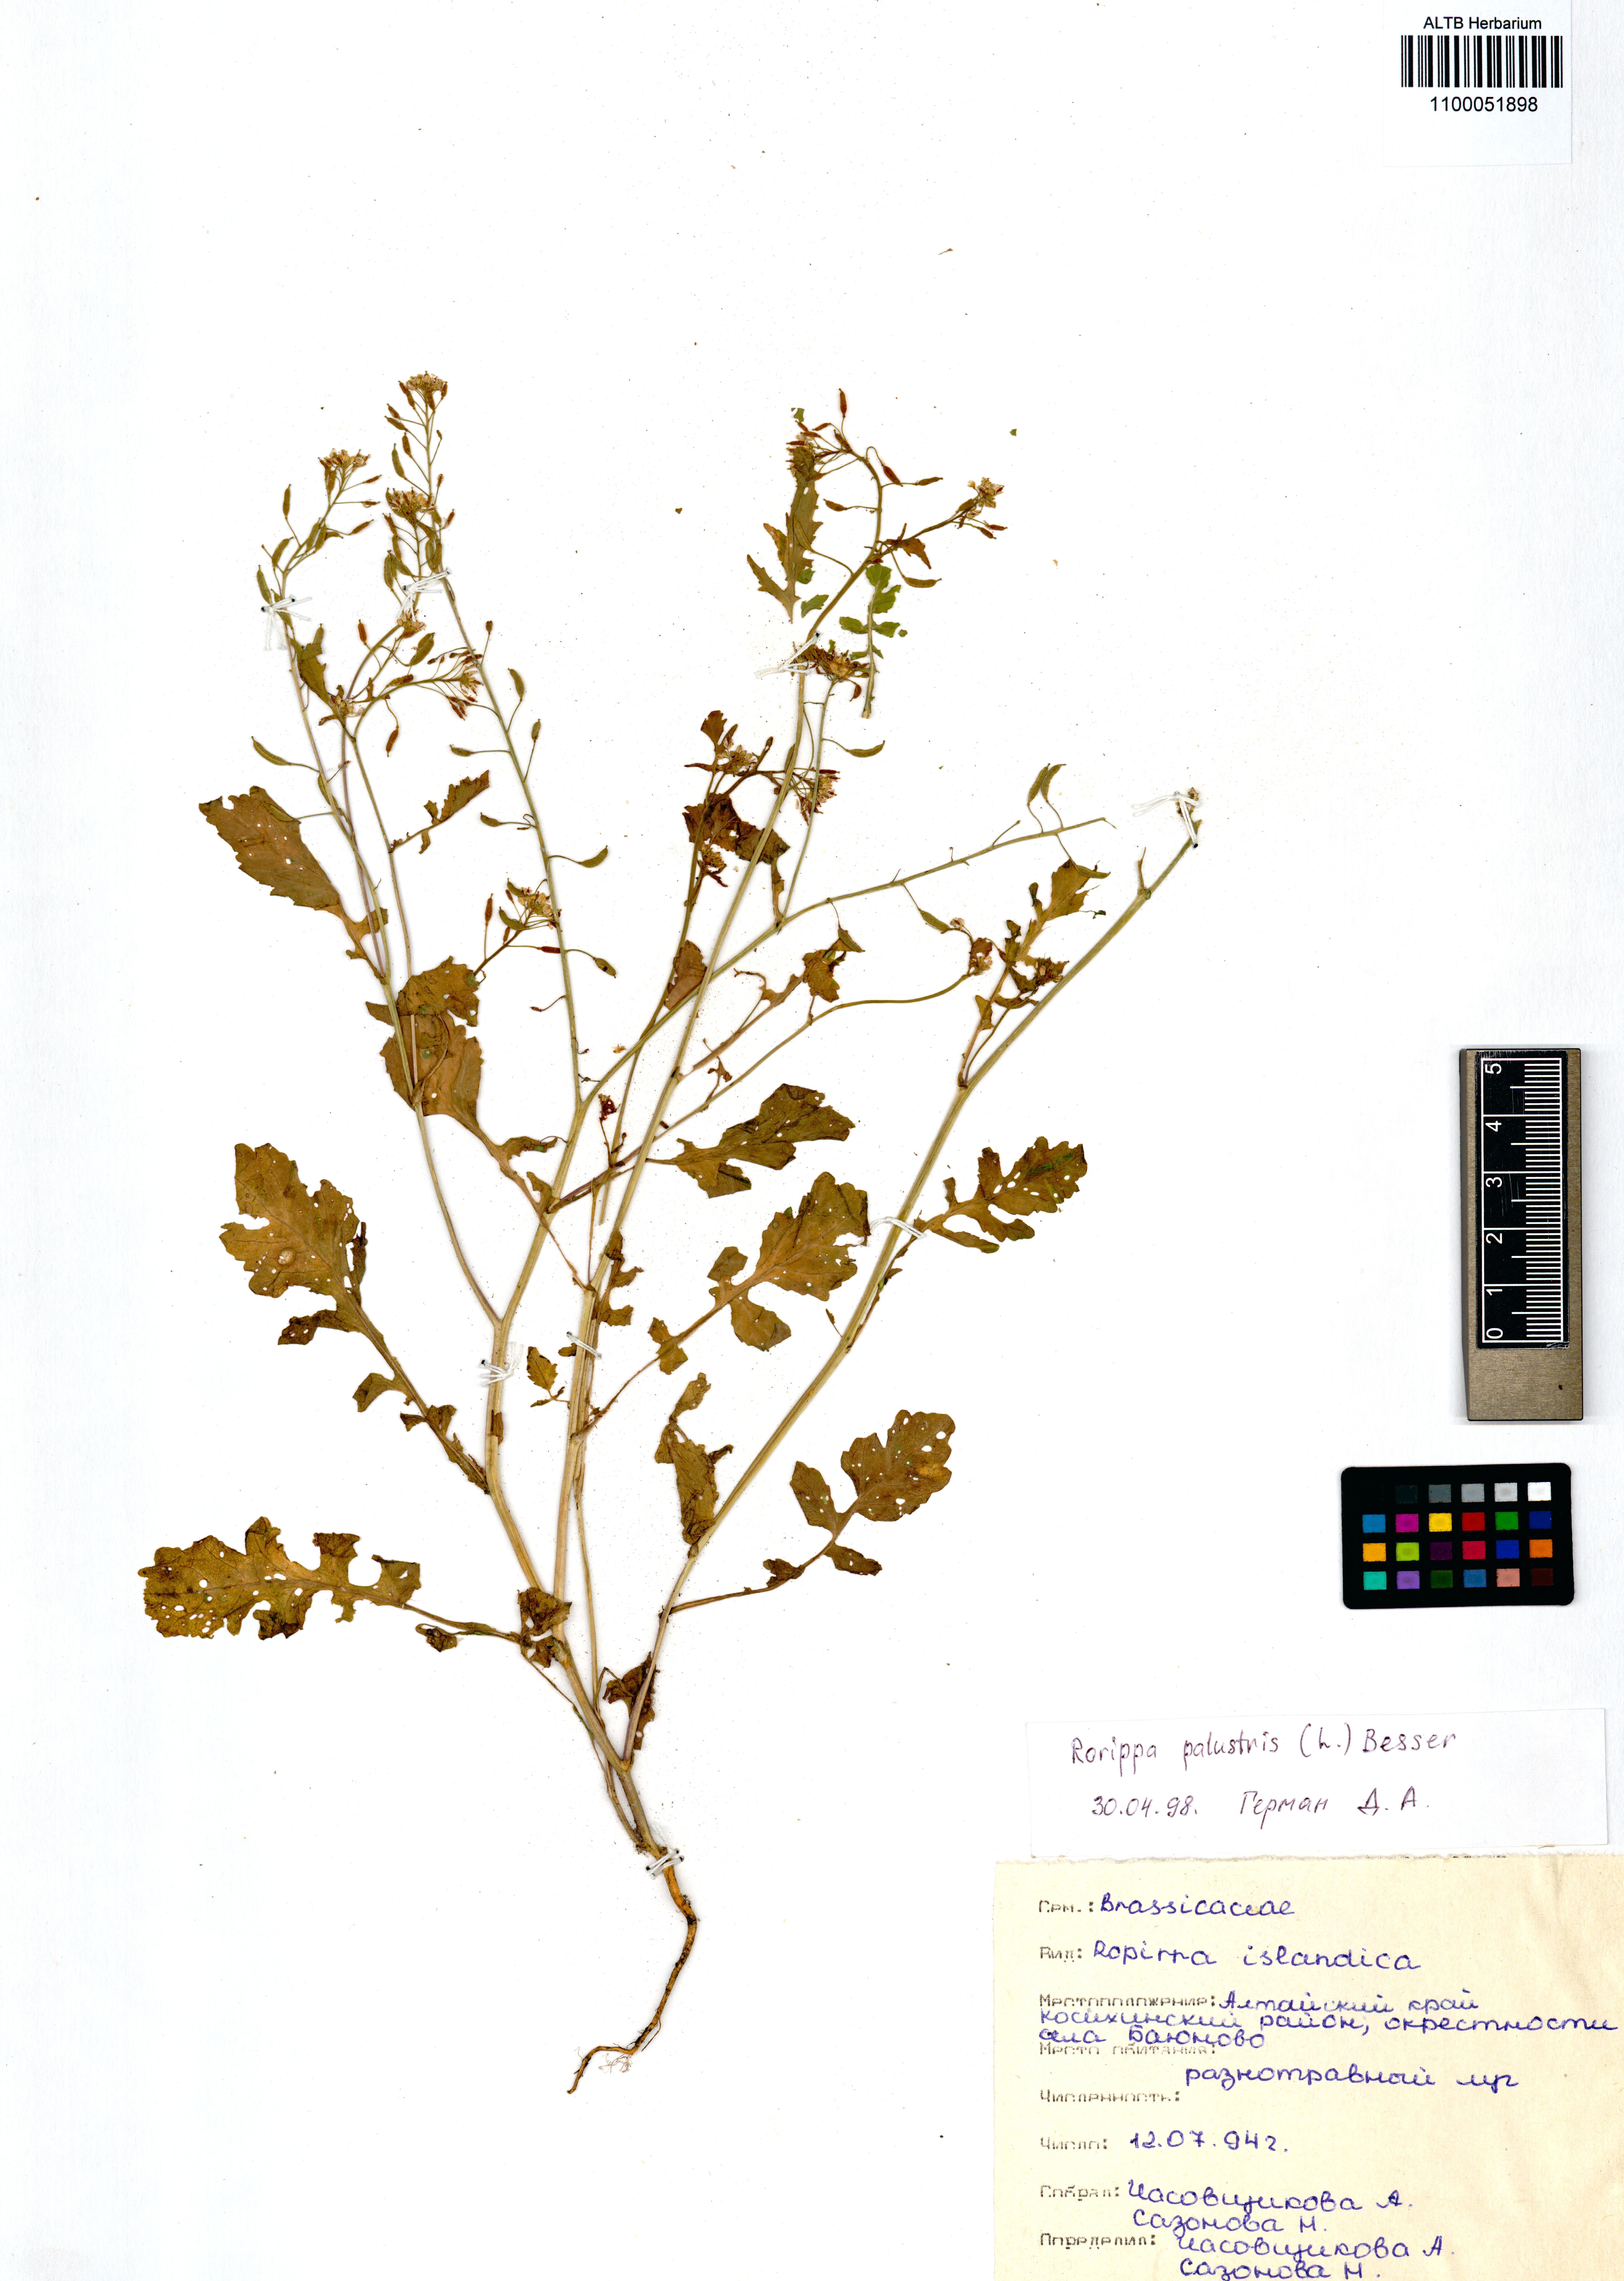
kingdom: Plantae
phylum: Tracheophyta
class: Magnoliopsida
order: Brassicales
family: Brassicaceae
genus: Rorippa
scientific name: Rorippa palustris
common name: Marsh yellow-cress
